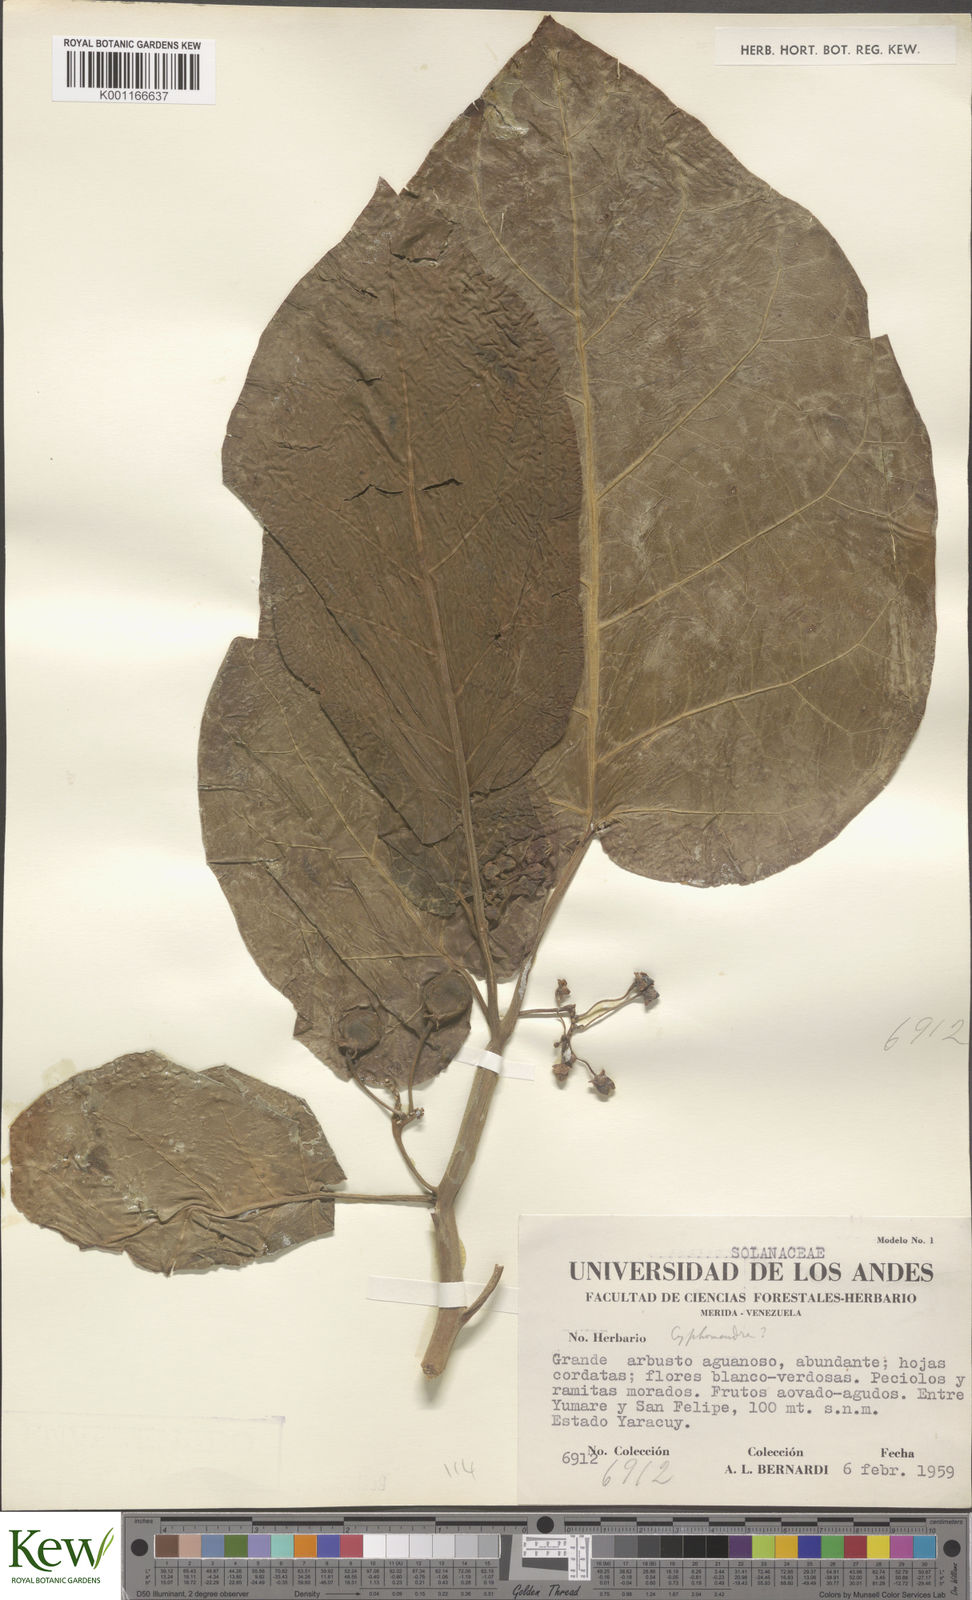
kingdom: Plantae
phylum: Tracheophyta
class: Magnoliopsida
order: Solanales
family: Solanaceae
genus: Solanum
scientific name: Solanum
